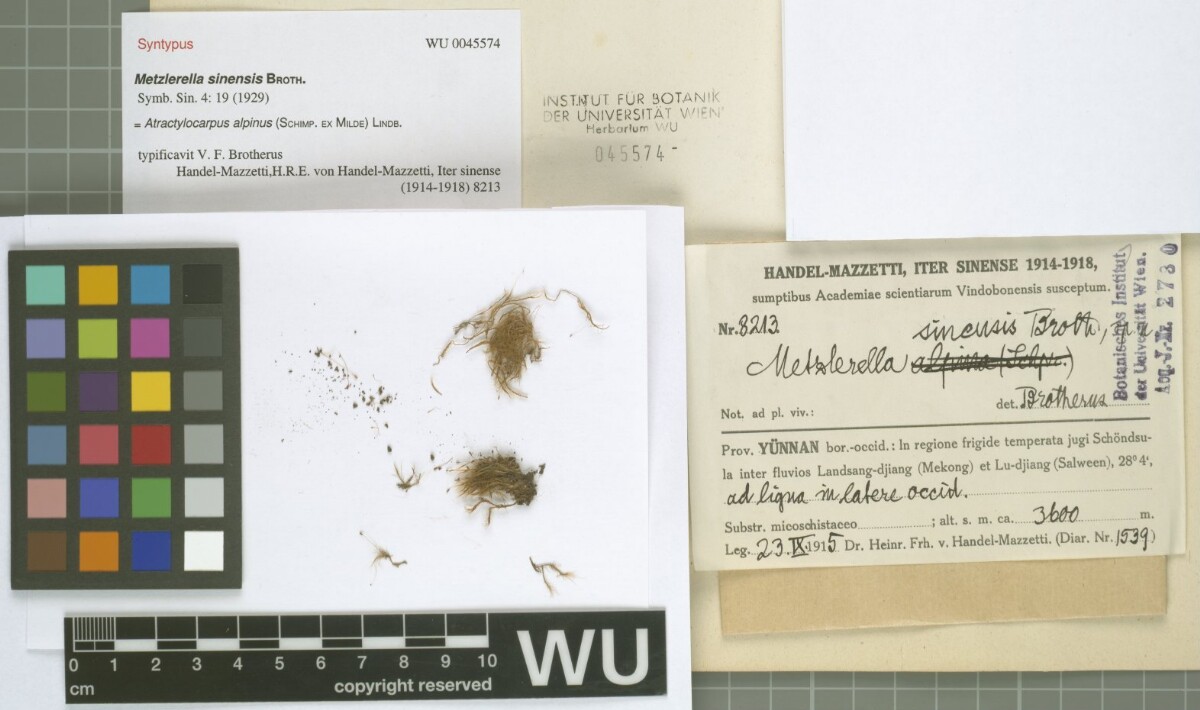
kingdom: Plantae
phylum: Bryophyta
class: Bryopsida
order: Dicranales
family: Leucobryaceae
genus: Atractylocarpus
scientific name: Atractylocarpus alpinus
